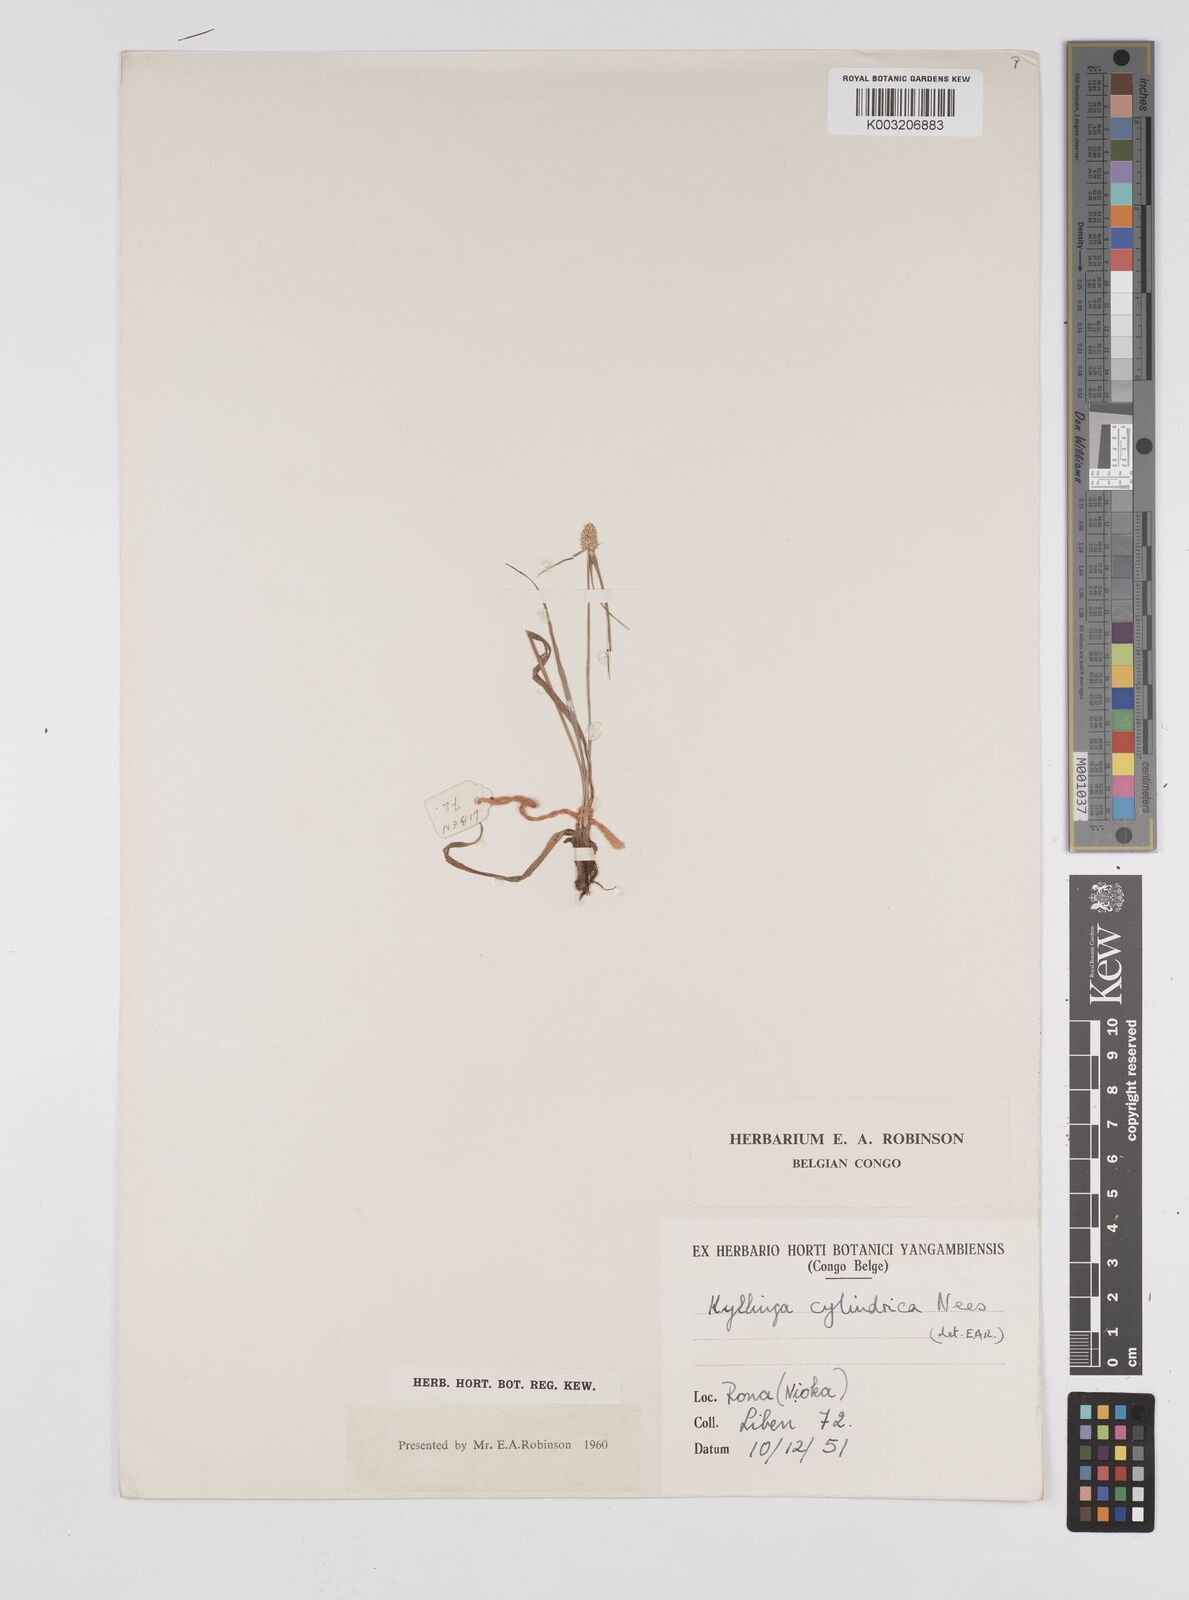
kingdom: Plantae
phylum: Tracheophyta
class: Liliopsida
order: Poales
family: Cyperaceae
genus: Cyperus
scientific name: Cyperus odoratus
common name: Fragrant flatsedge
